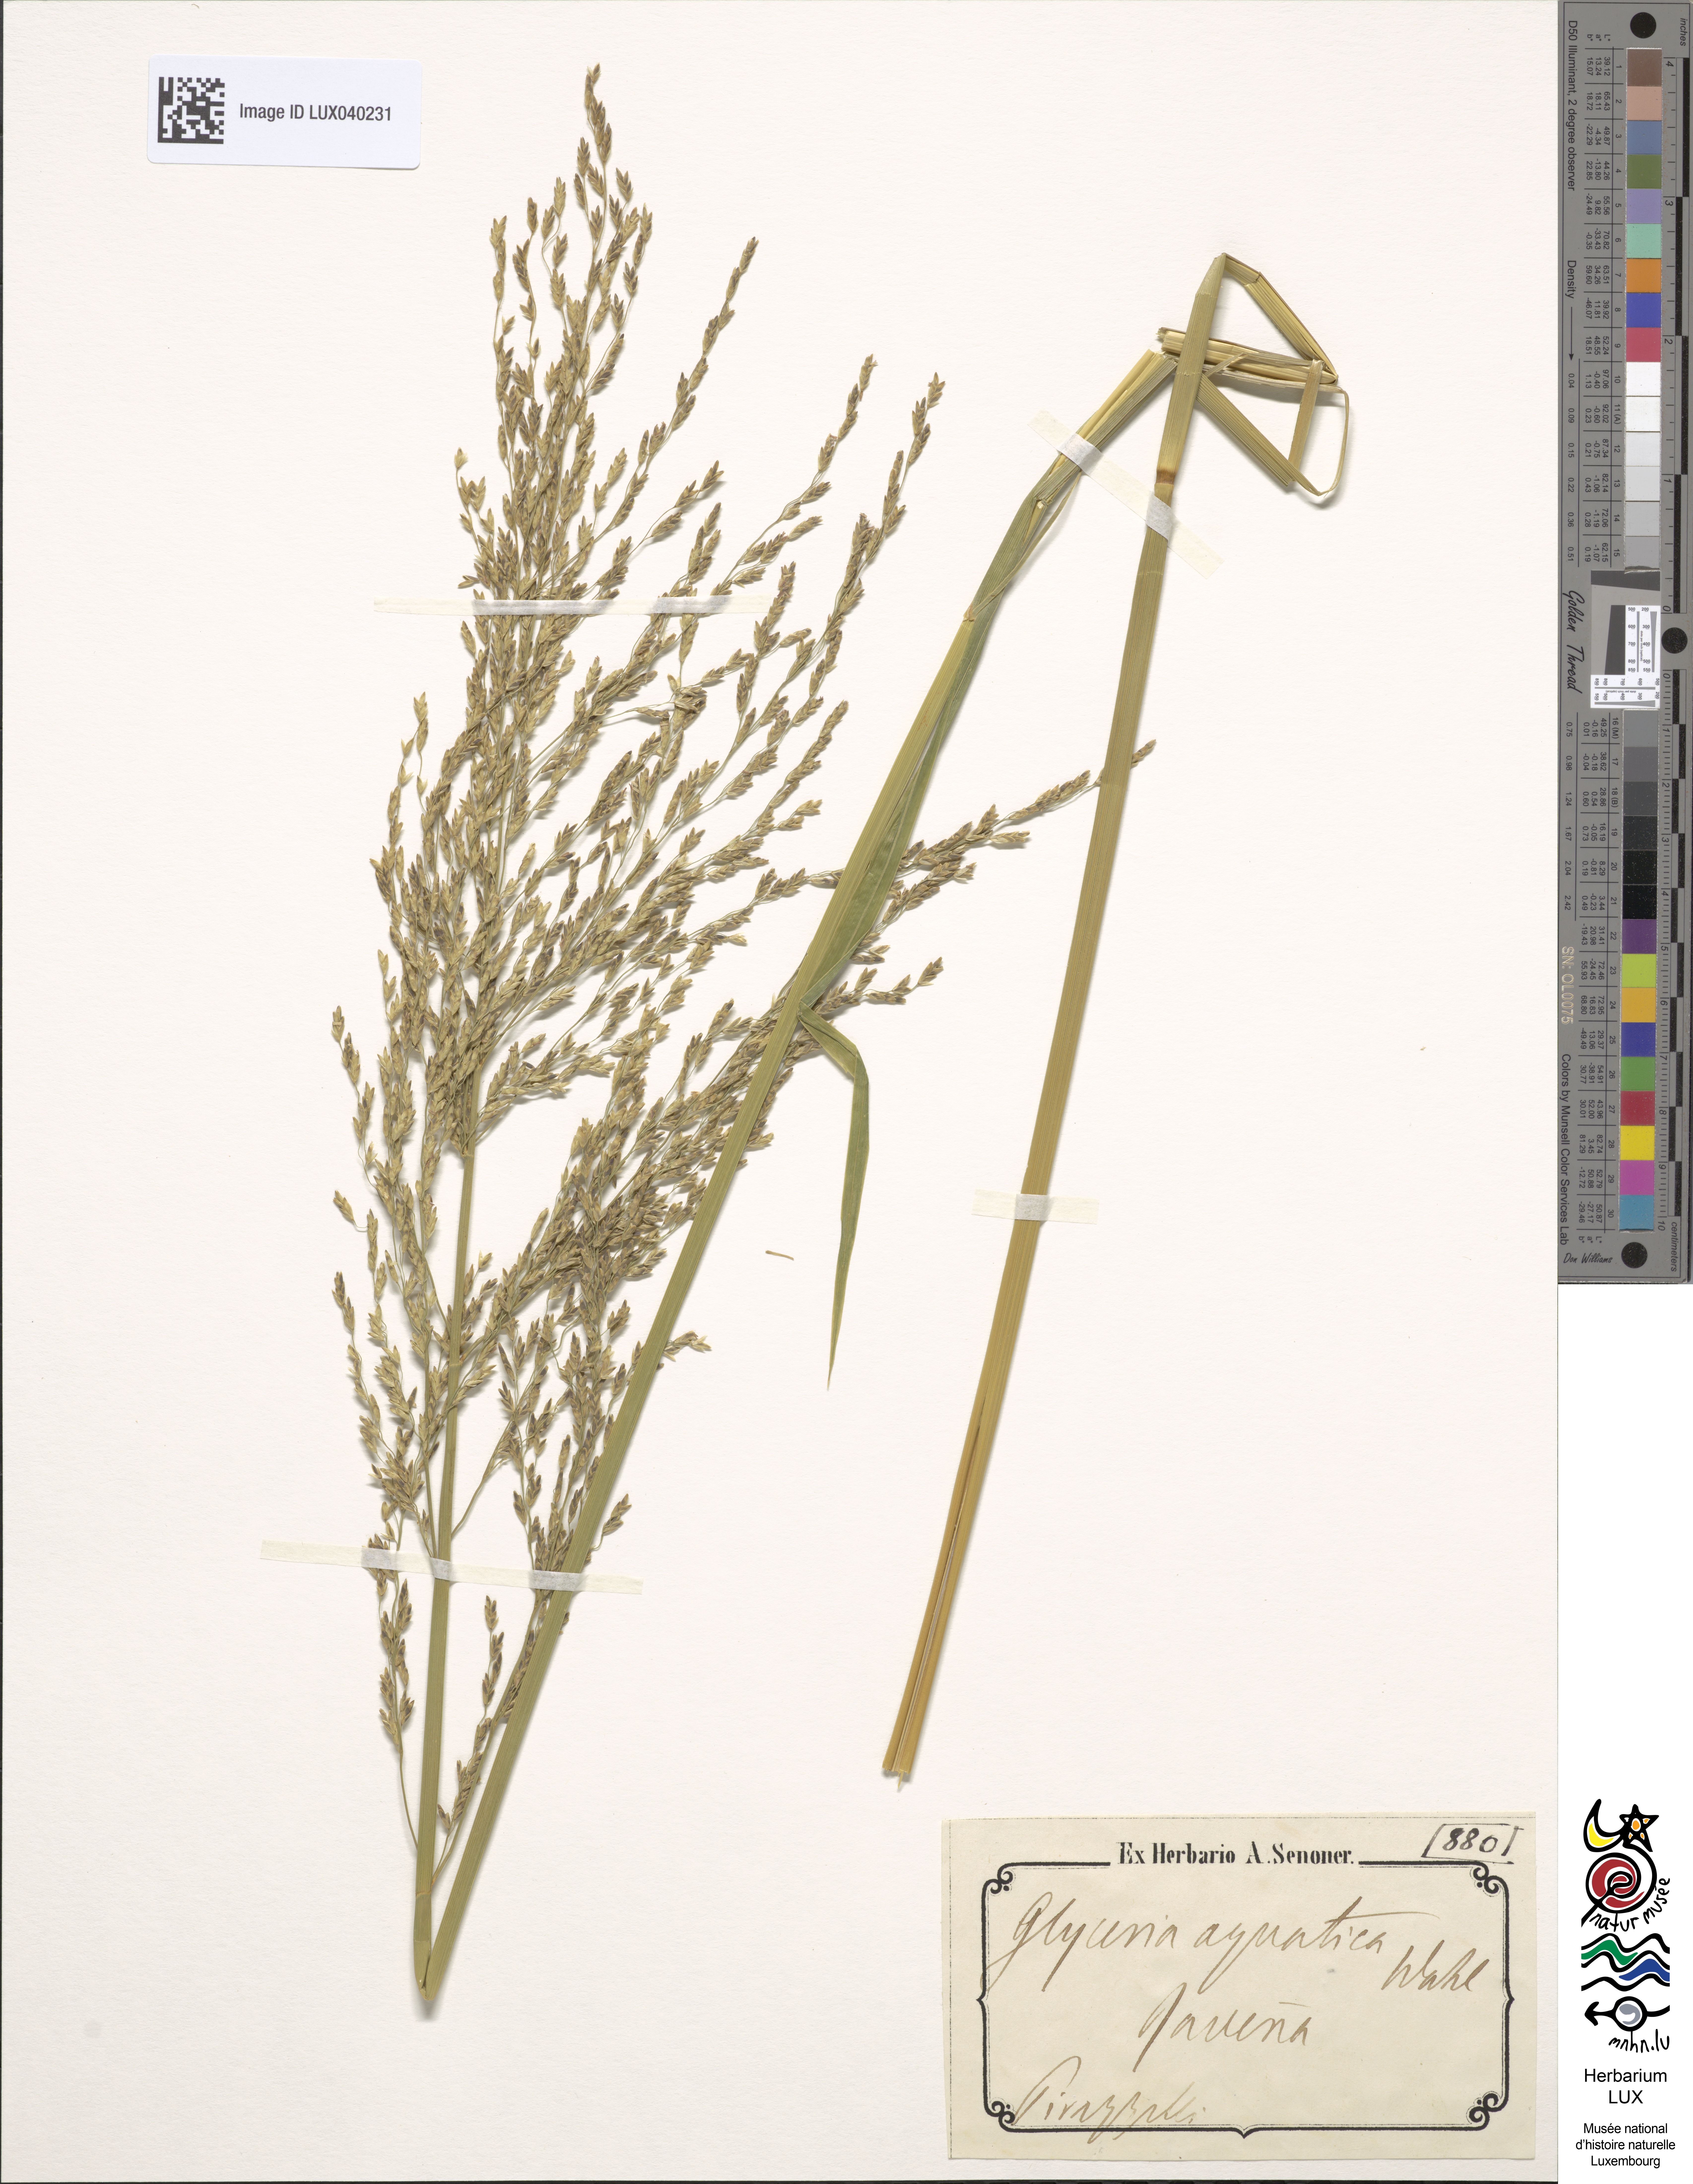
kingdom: Plantae
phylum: Tracheophyta
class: Liliopsida
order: Poales
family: Poaceae
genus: Glyceria
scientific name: Glyceria maxima
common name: Reed mannagrass
